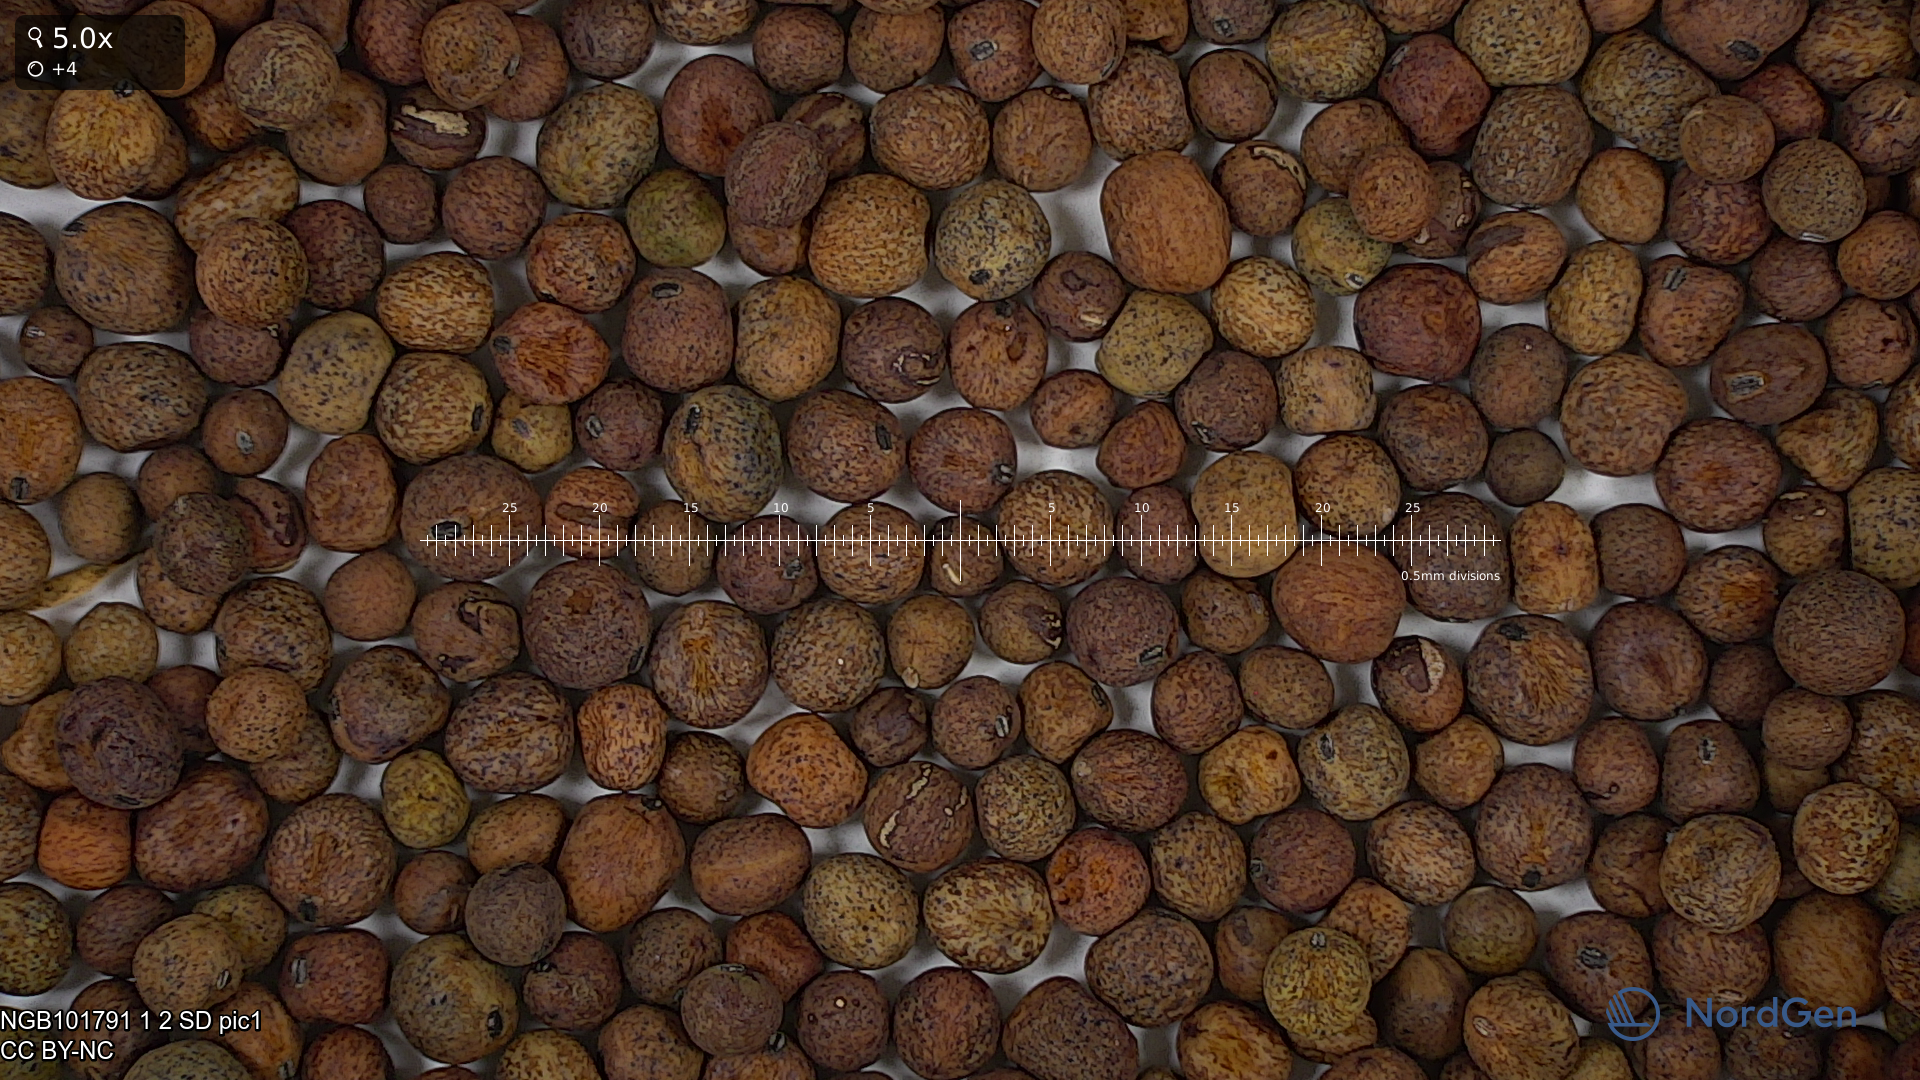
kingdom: Plantae
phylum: Tracheophyta
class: Magnoliopsida
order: Fabales
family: Fabaceae
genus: Lathyrus
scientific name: Lathyrus oleraceus
